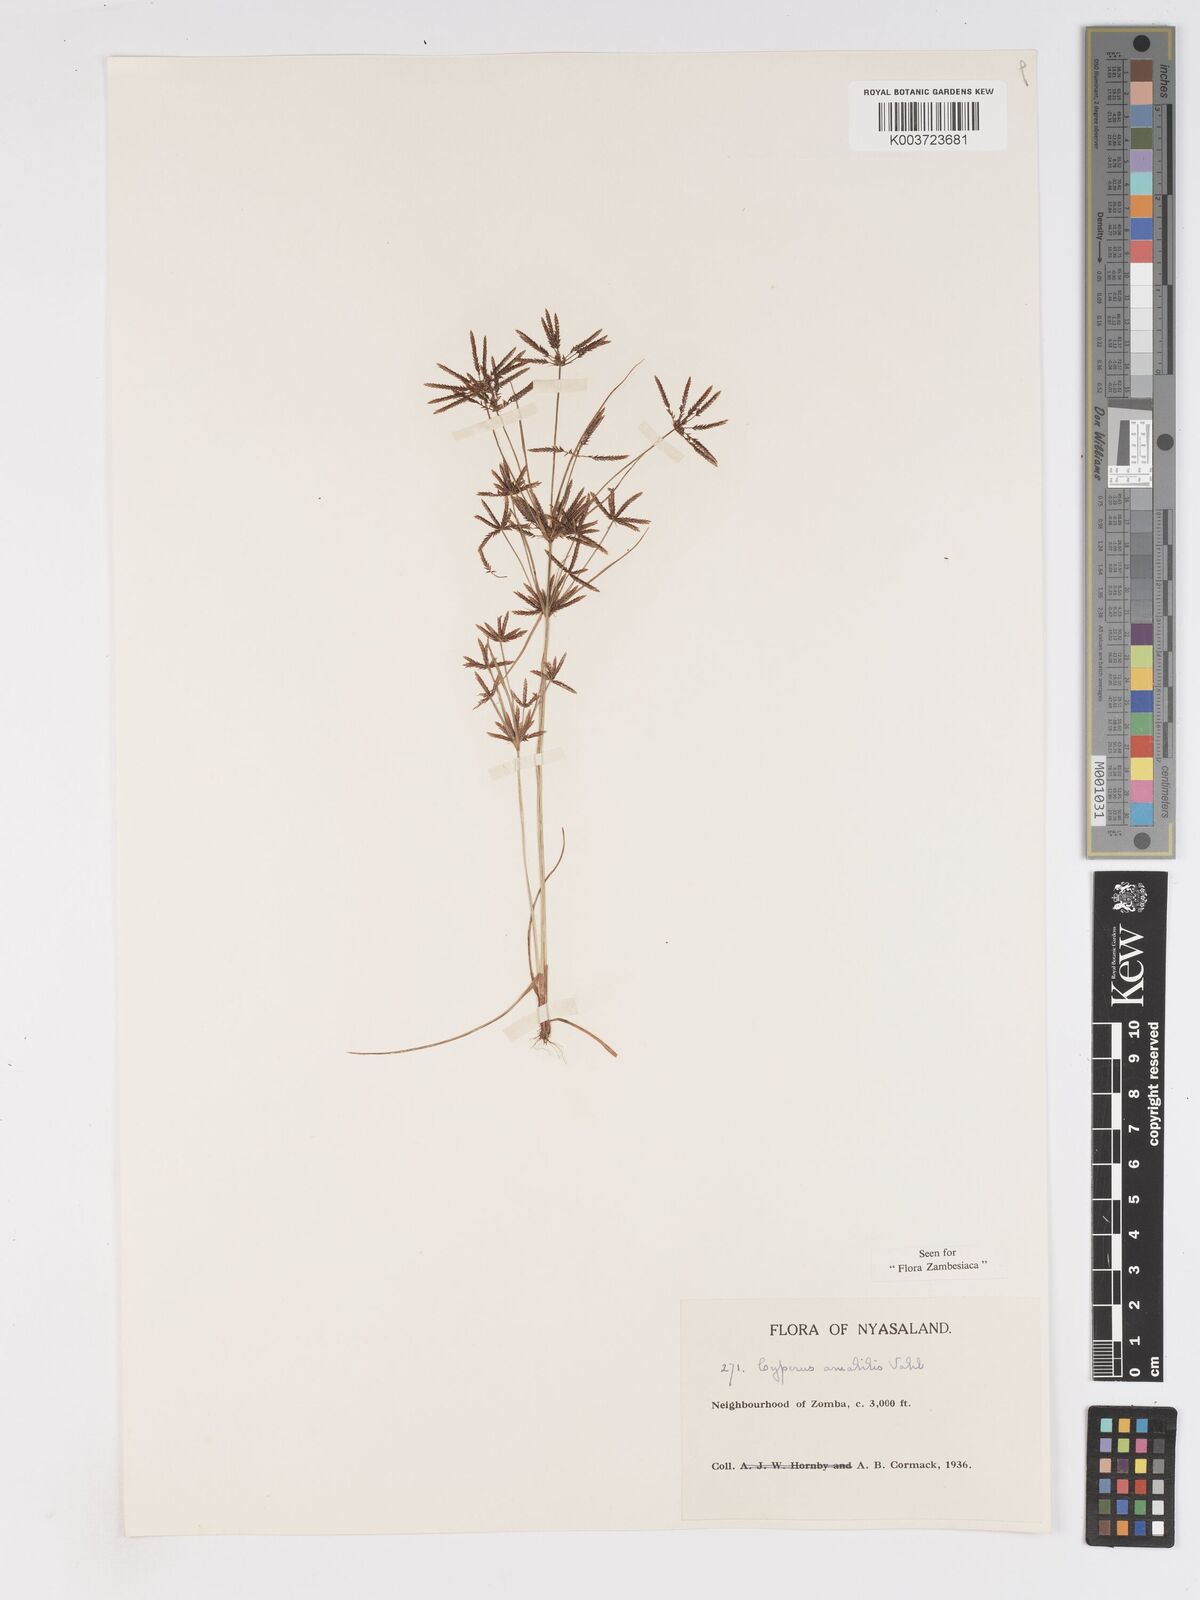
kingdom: Plantae
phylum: Tracheophyta
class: Liliopsida
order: Poales
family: Cyperaceae
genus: Cyperus
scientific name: Cyperus amabilis
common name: Foothill flat sedge
